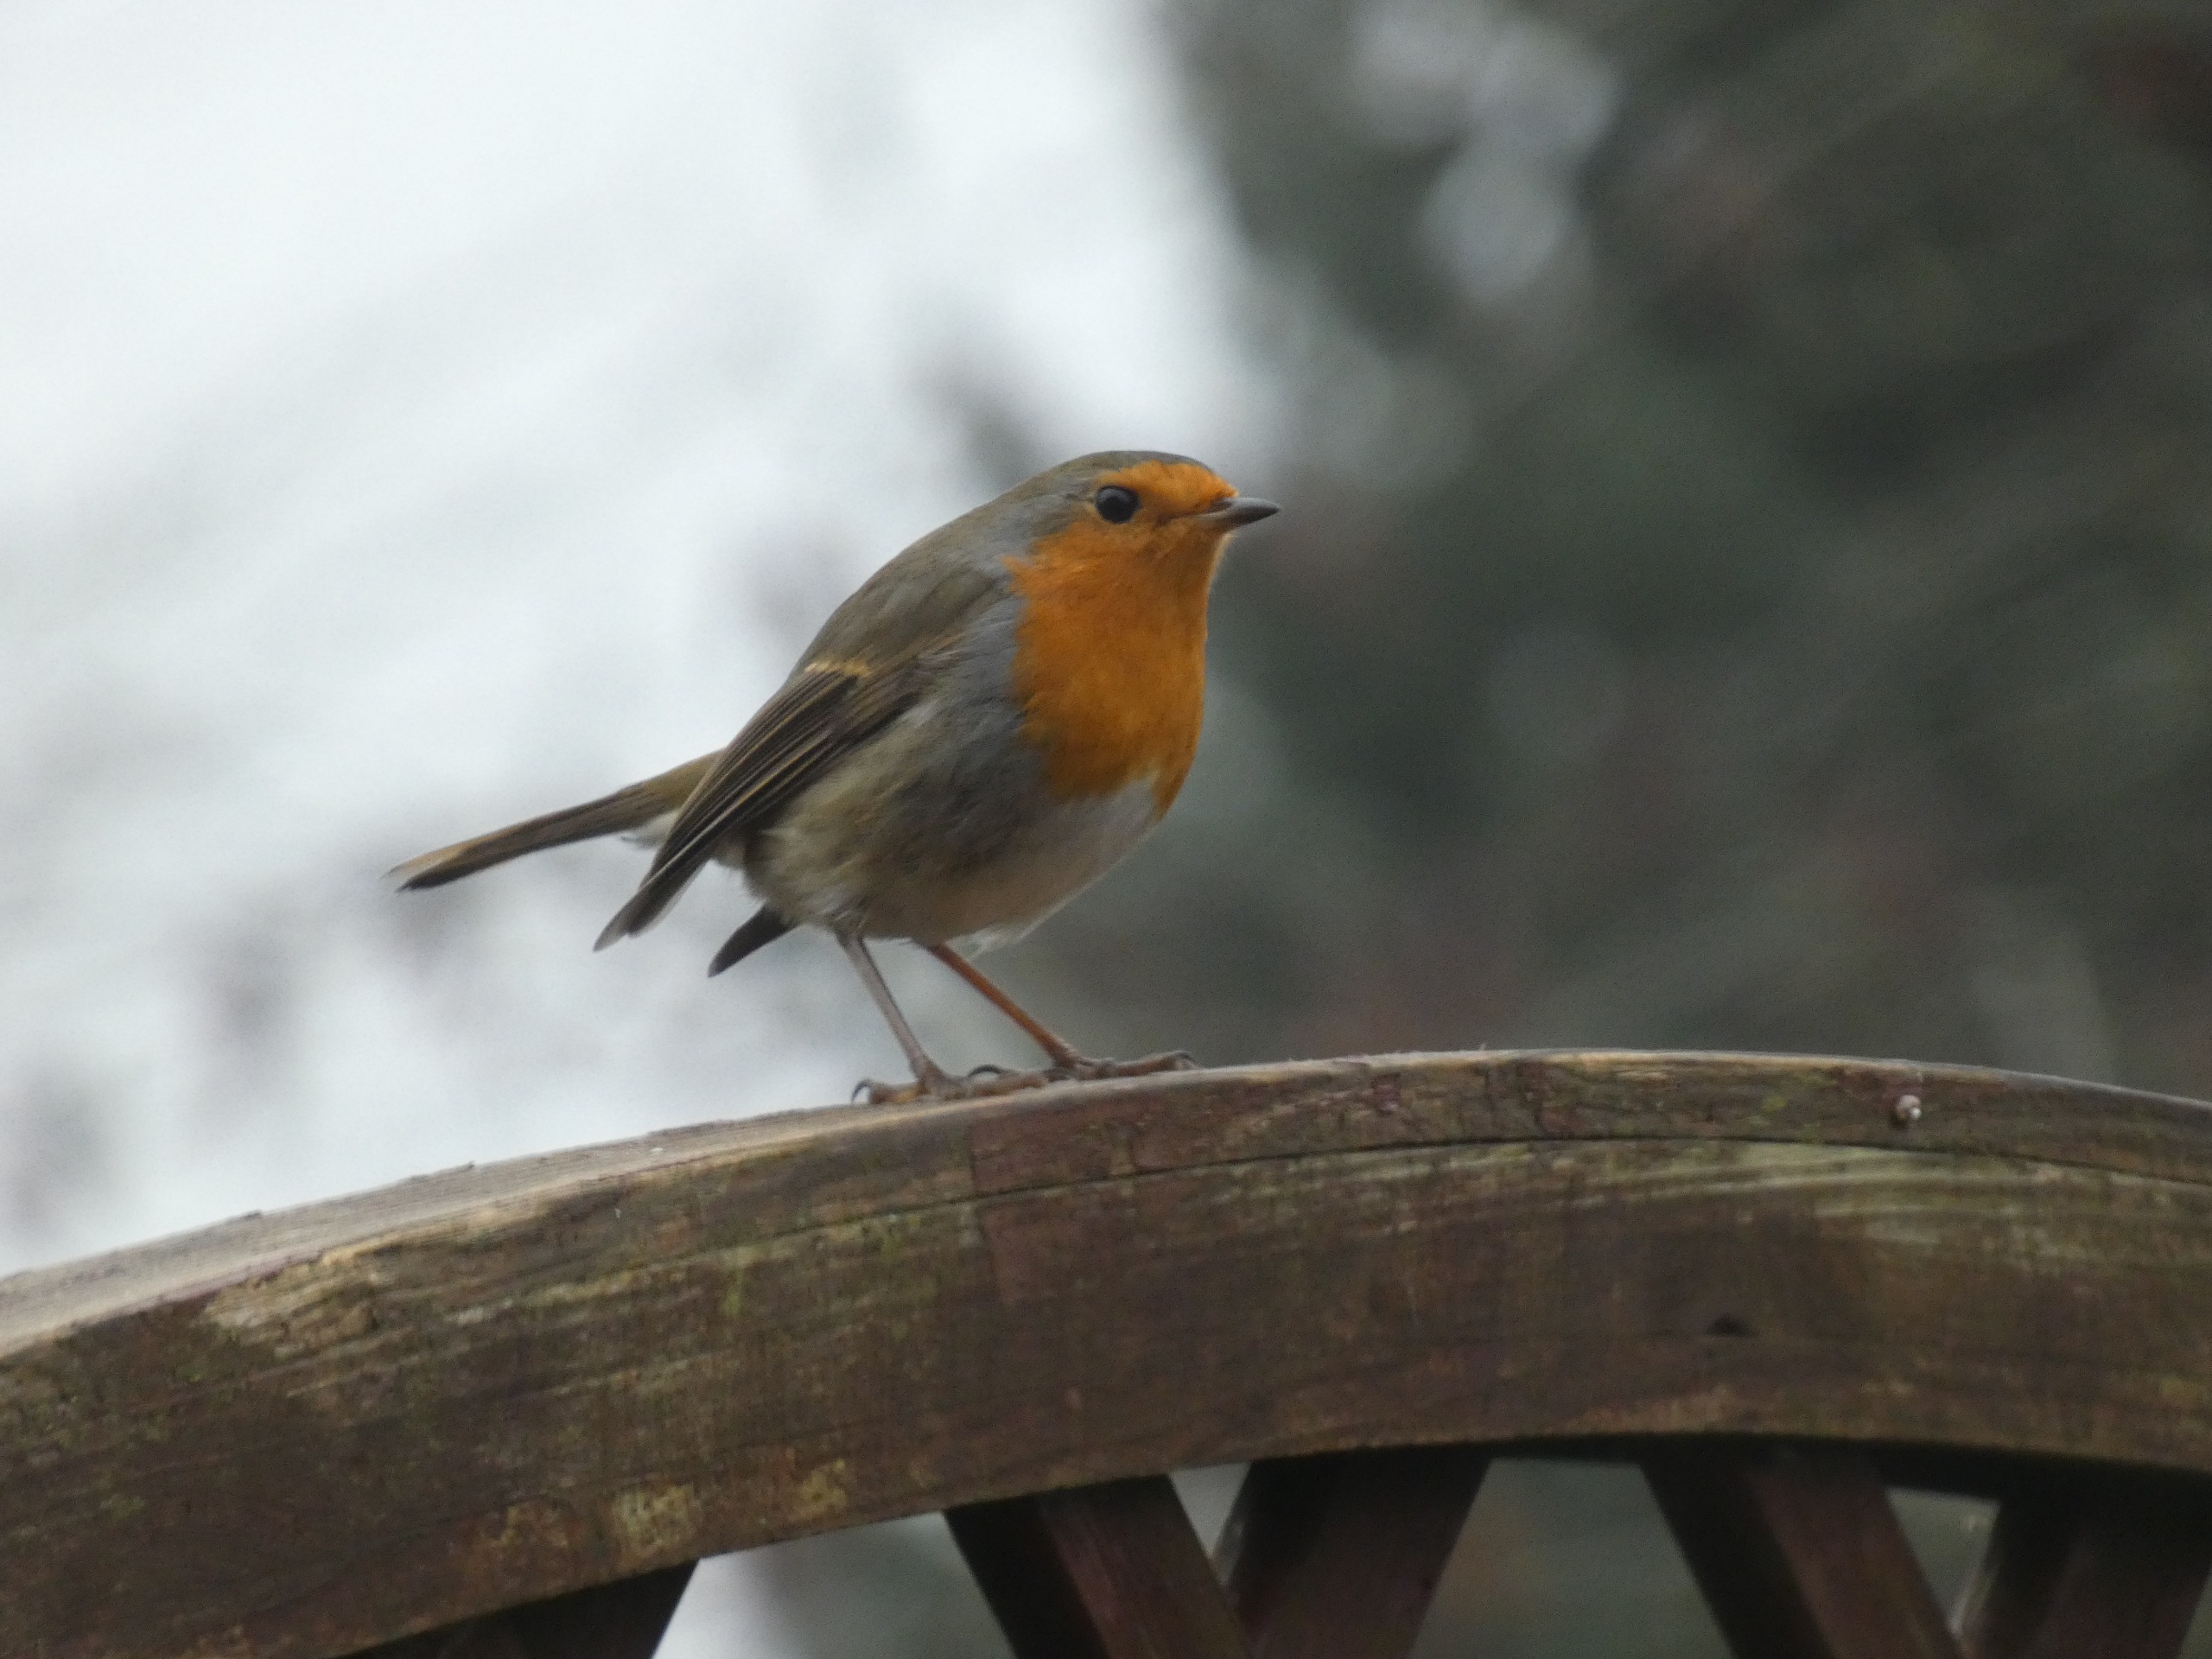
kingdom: Animalia
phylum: Chordata
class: Aves
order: Passeriformes
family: Muscicapidae
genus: Erithacus
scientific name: Erithacus rubecula
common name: Rødhals/rødkælk
